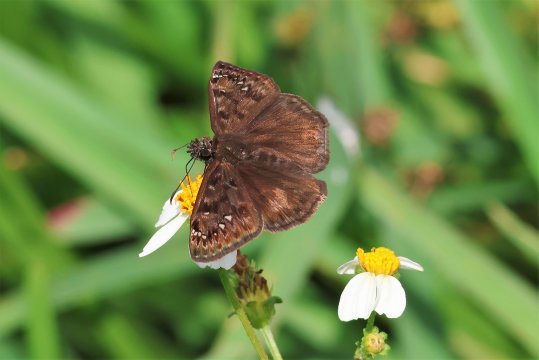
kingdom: Animalia
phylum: Arthropoda
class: Insecta
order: Lepidoptera
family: Hesperiidae
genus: Gesta
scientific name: Gesta
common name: Horace's Duskywing
